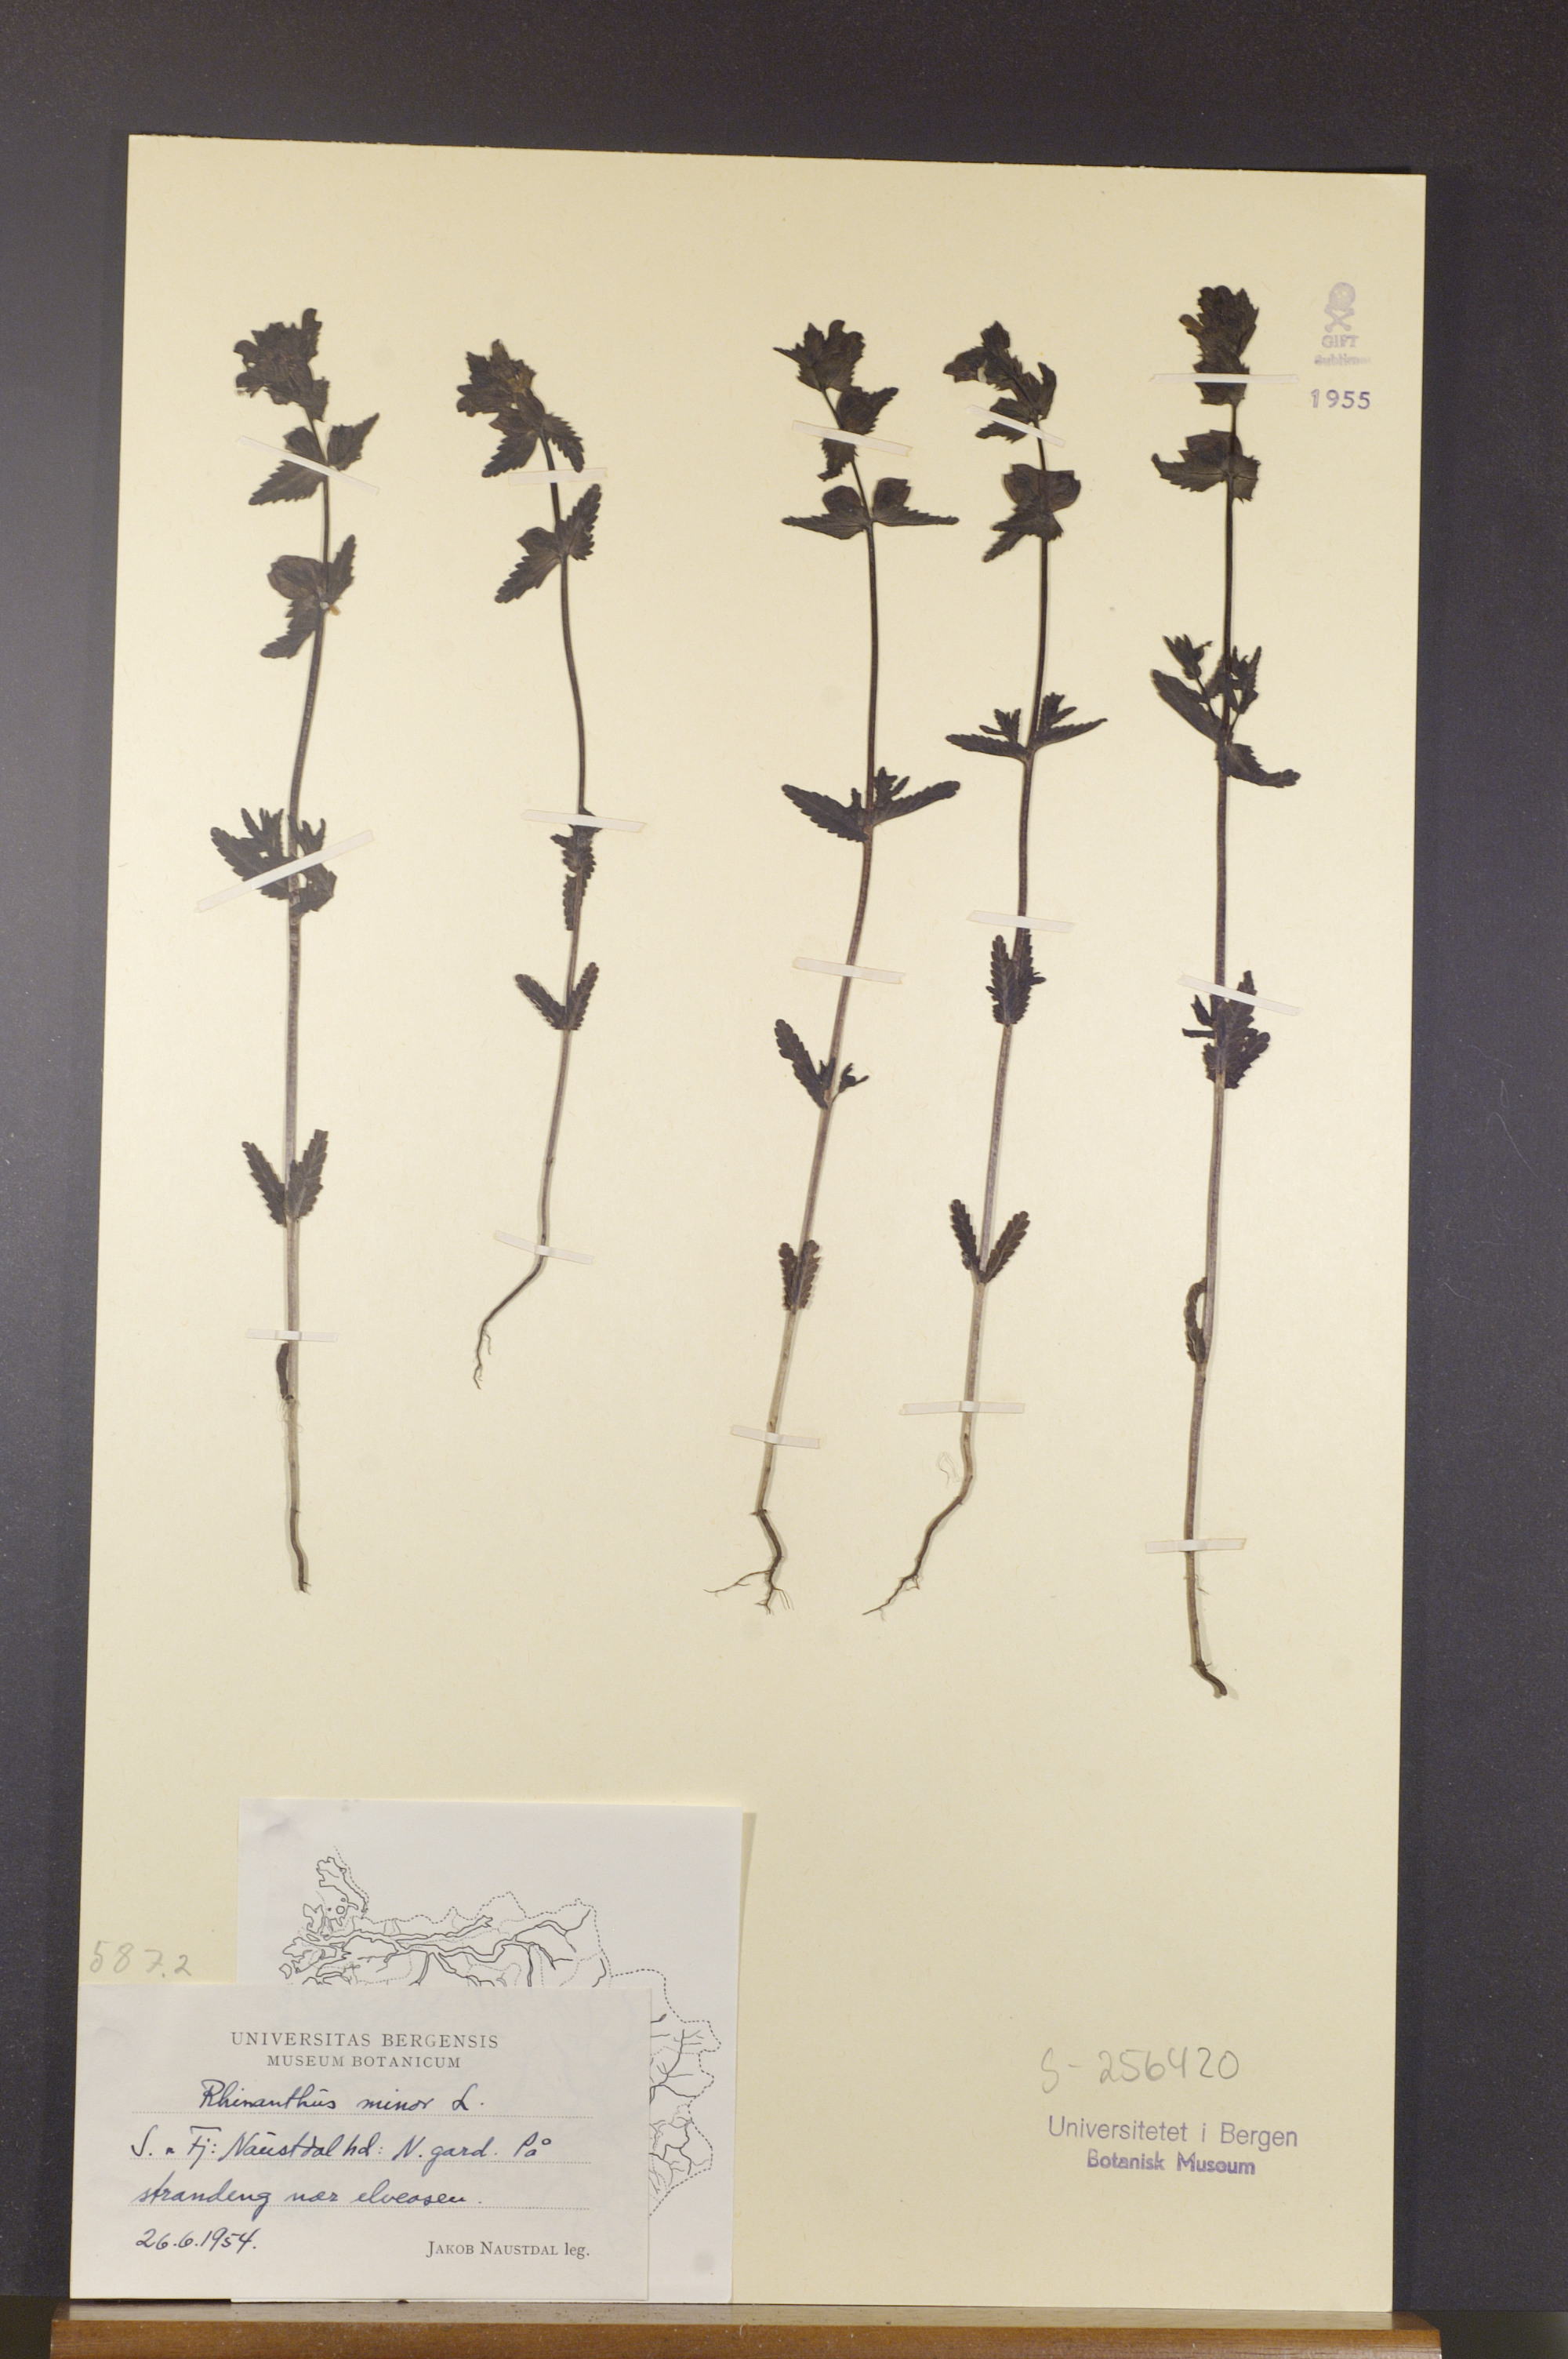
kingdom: Plantae
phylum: Tracheophyta
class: Magnoliopsida
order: Lamiales
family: Orobanchaceae
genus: Rhinanthus
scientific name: Rhinanthus minor
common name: Yellow-rattle
